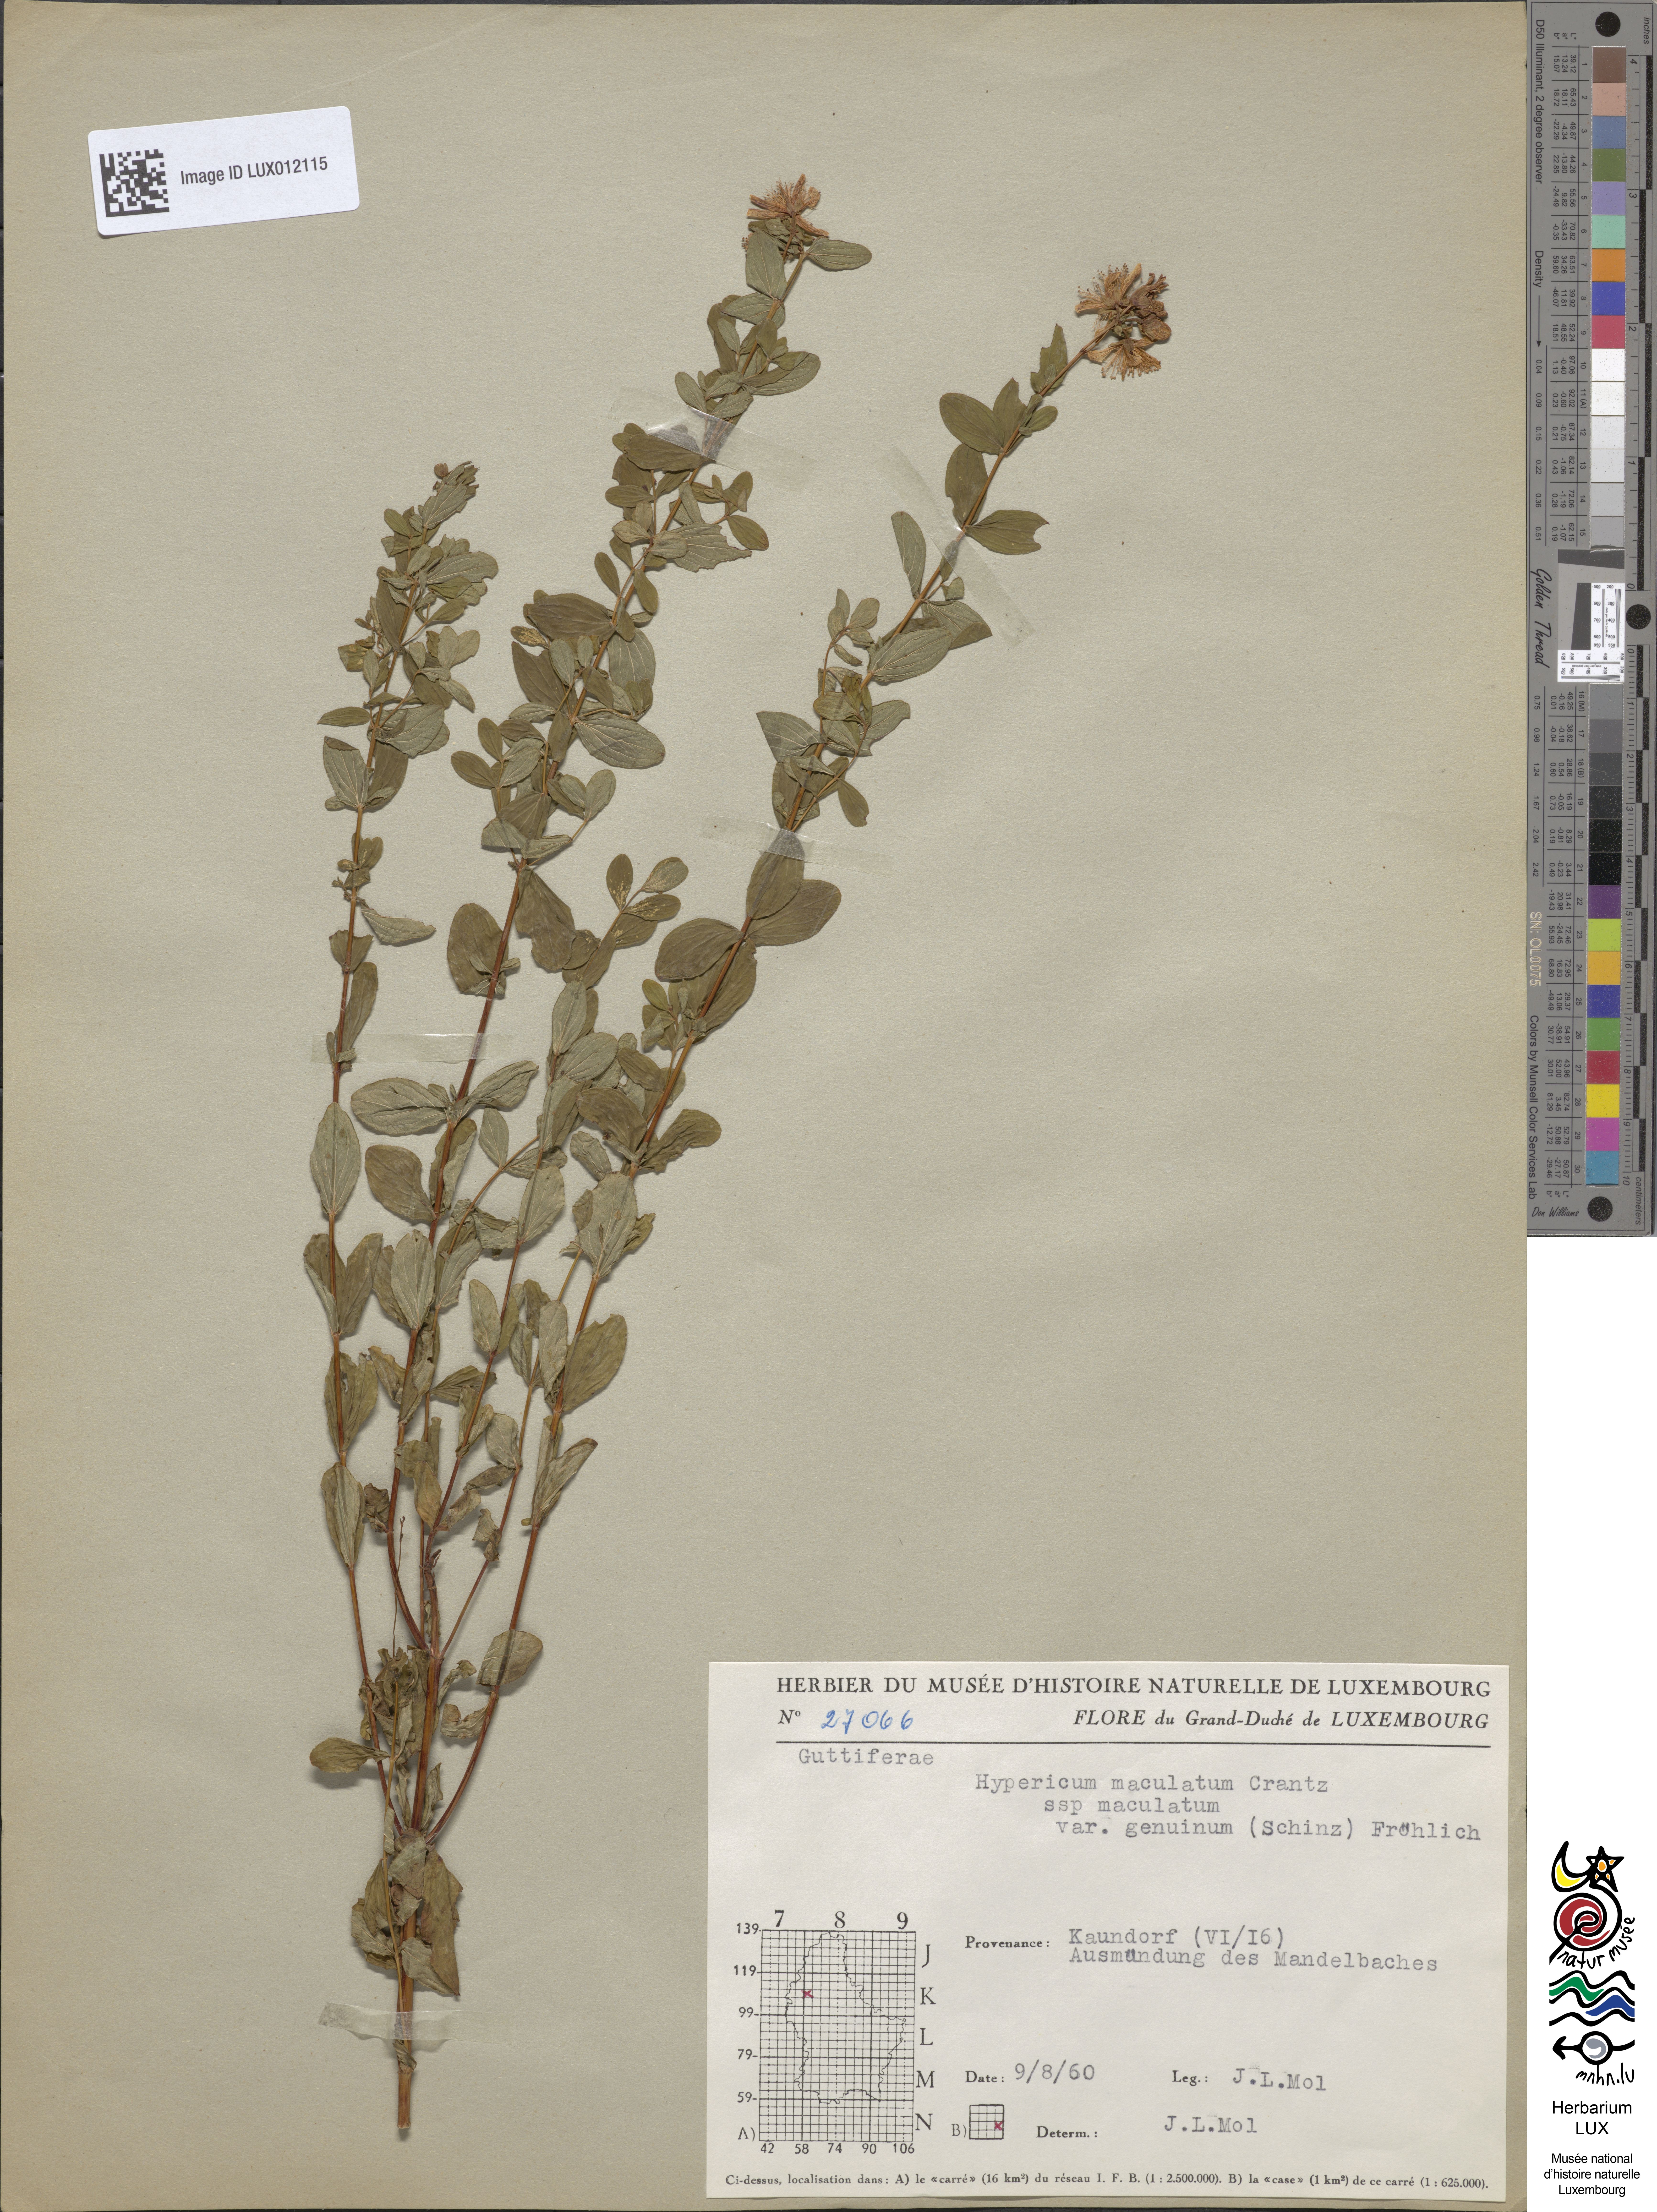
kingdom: Plantae
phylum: Tracheophyta
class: Magnoliopsida
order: Malpighiales
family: Hypericaceae
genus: Hypericum
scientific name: Hypericum maculatum
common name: Imperforate st. john's-wort
